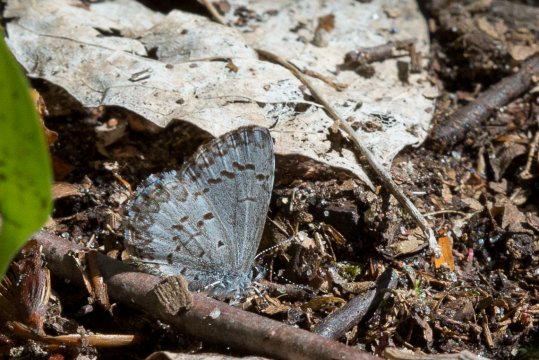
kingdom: Animalia
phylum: Arthropoda
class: Insecta
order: Lepidoptera
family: Lycaenidae
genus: Celastrina
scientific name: Celastrina lucia
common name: Northern Spring Azure
